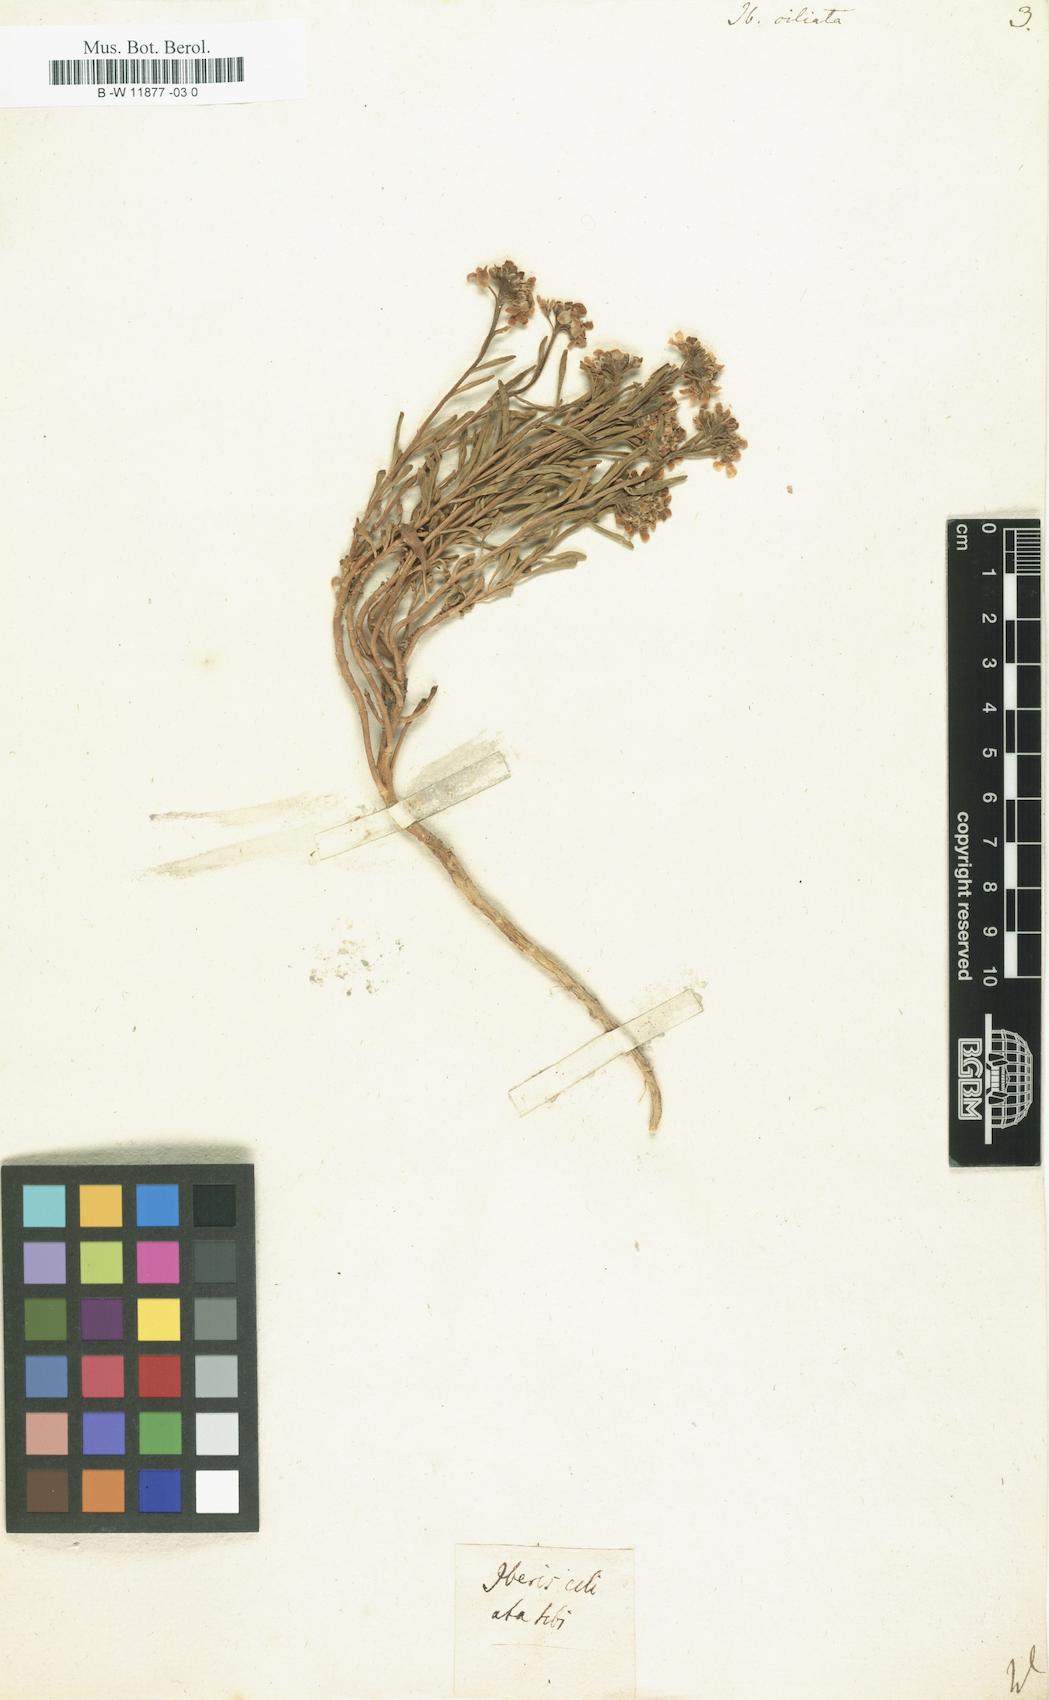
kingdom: Plantae
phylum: Tracheophyta
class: Magnoliopsida
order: Brassicales
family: Brassicaceae
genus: Iberis
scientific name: Iberis ciliata
